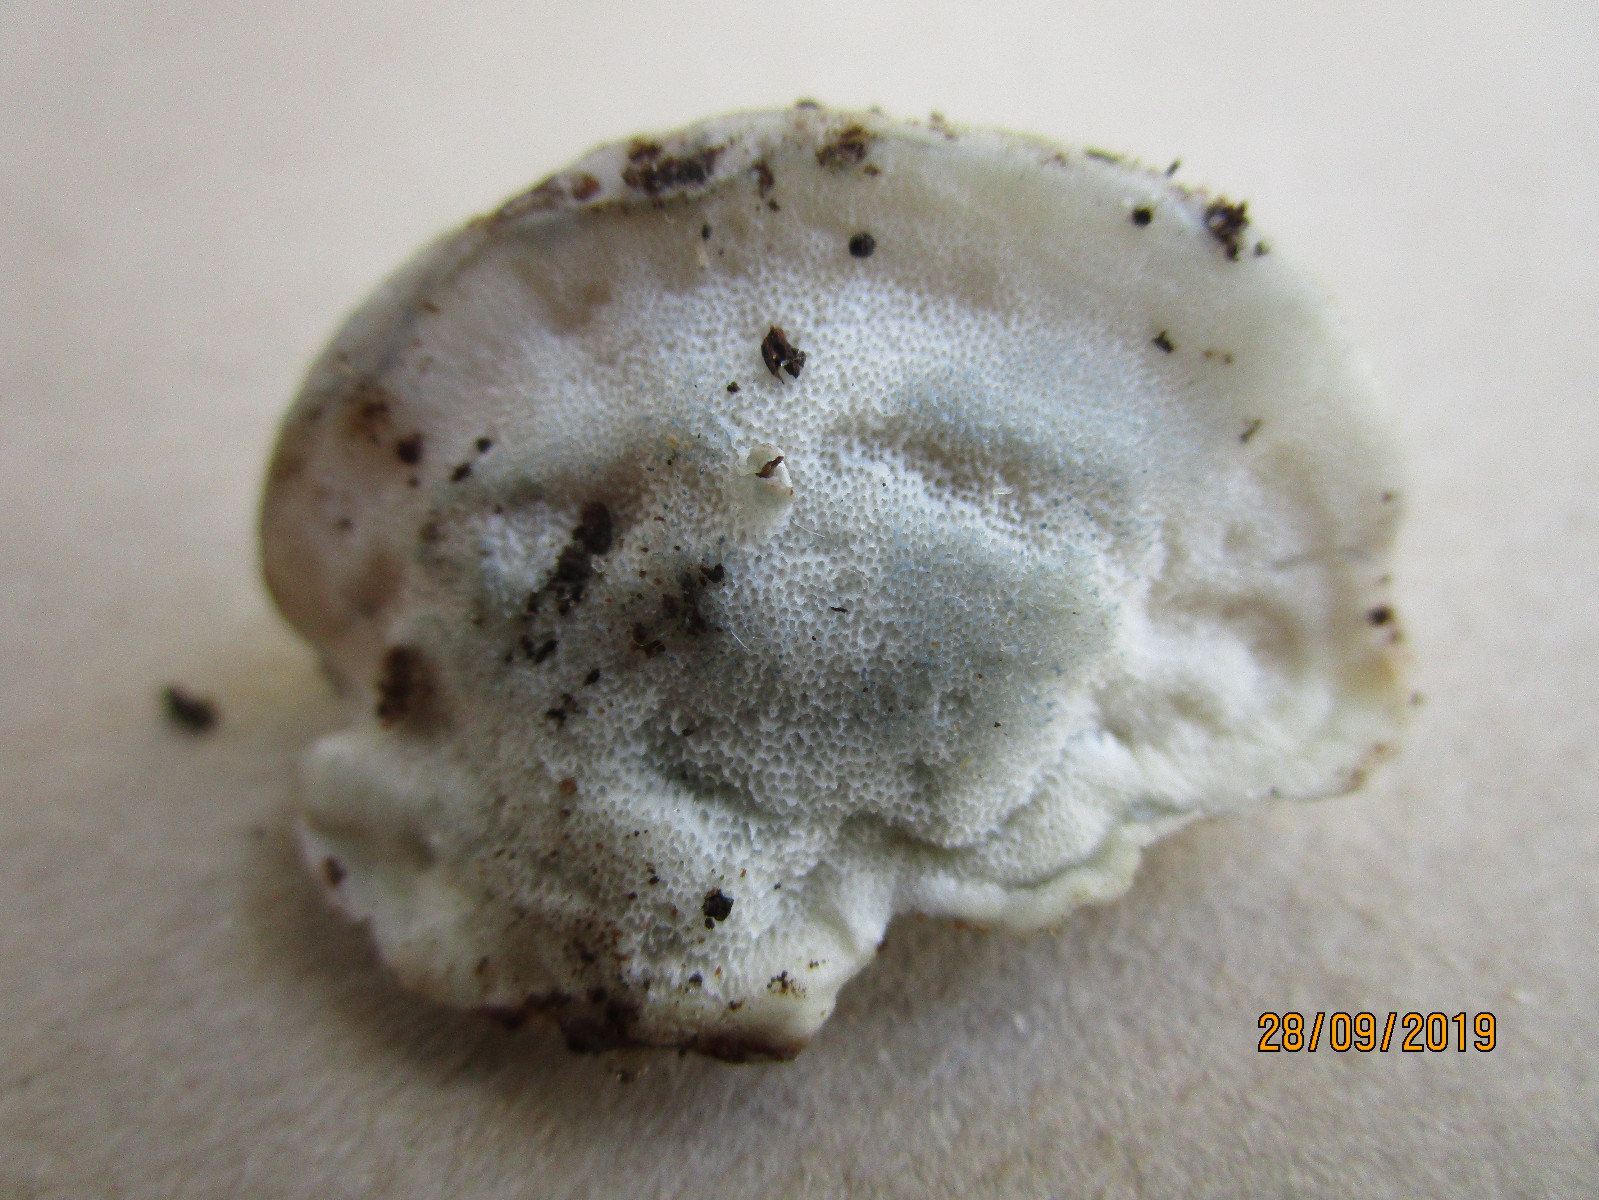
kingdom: Fungi
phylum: Basidiomycota
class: Agaricomycetes
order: Polyporales
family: Polyporaceae
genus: Cyanosporus
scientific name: Cyanosporus alni
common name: blegblå kødporesvamp
